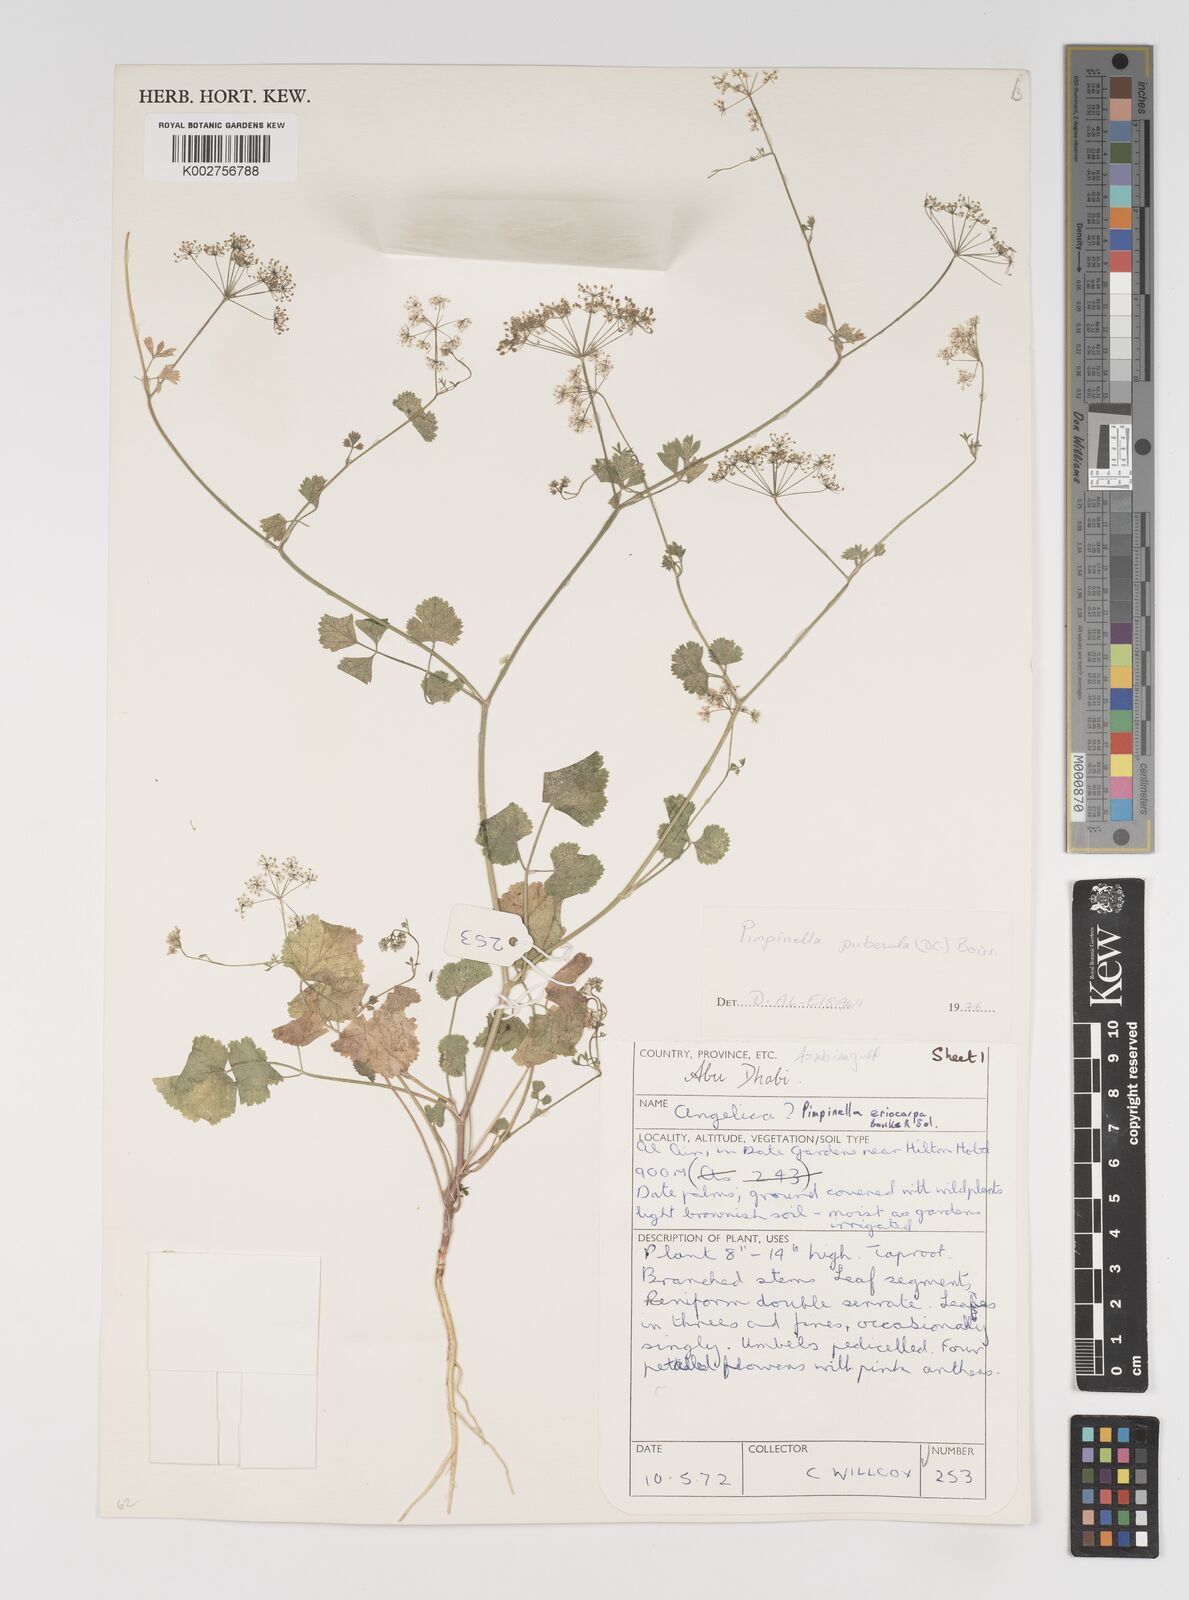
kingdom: Plantae
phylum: Tracheophyta
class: Magnoliopsida
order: Apiales
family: Apiaceae
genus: Pimpinella
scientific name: Pimpinella puberula
